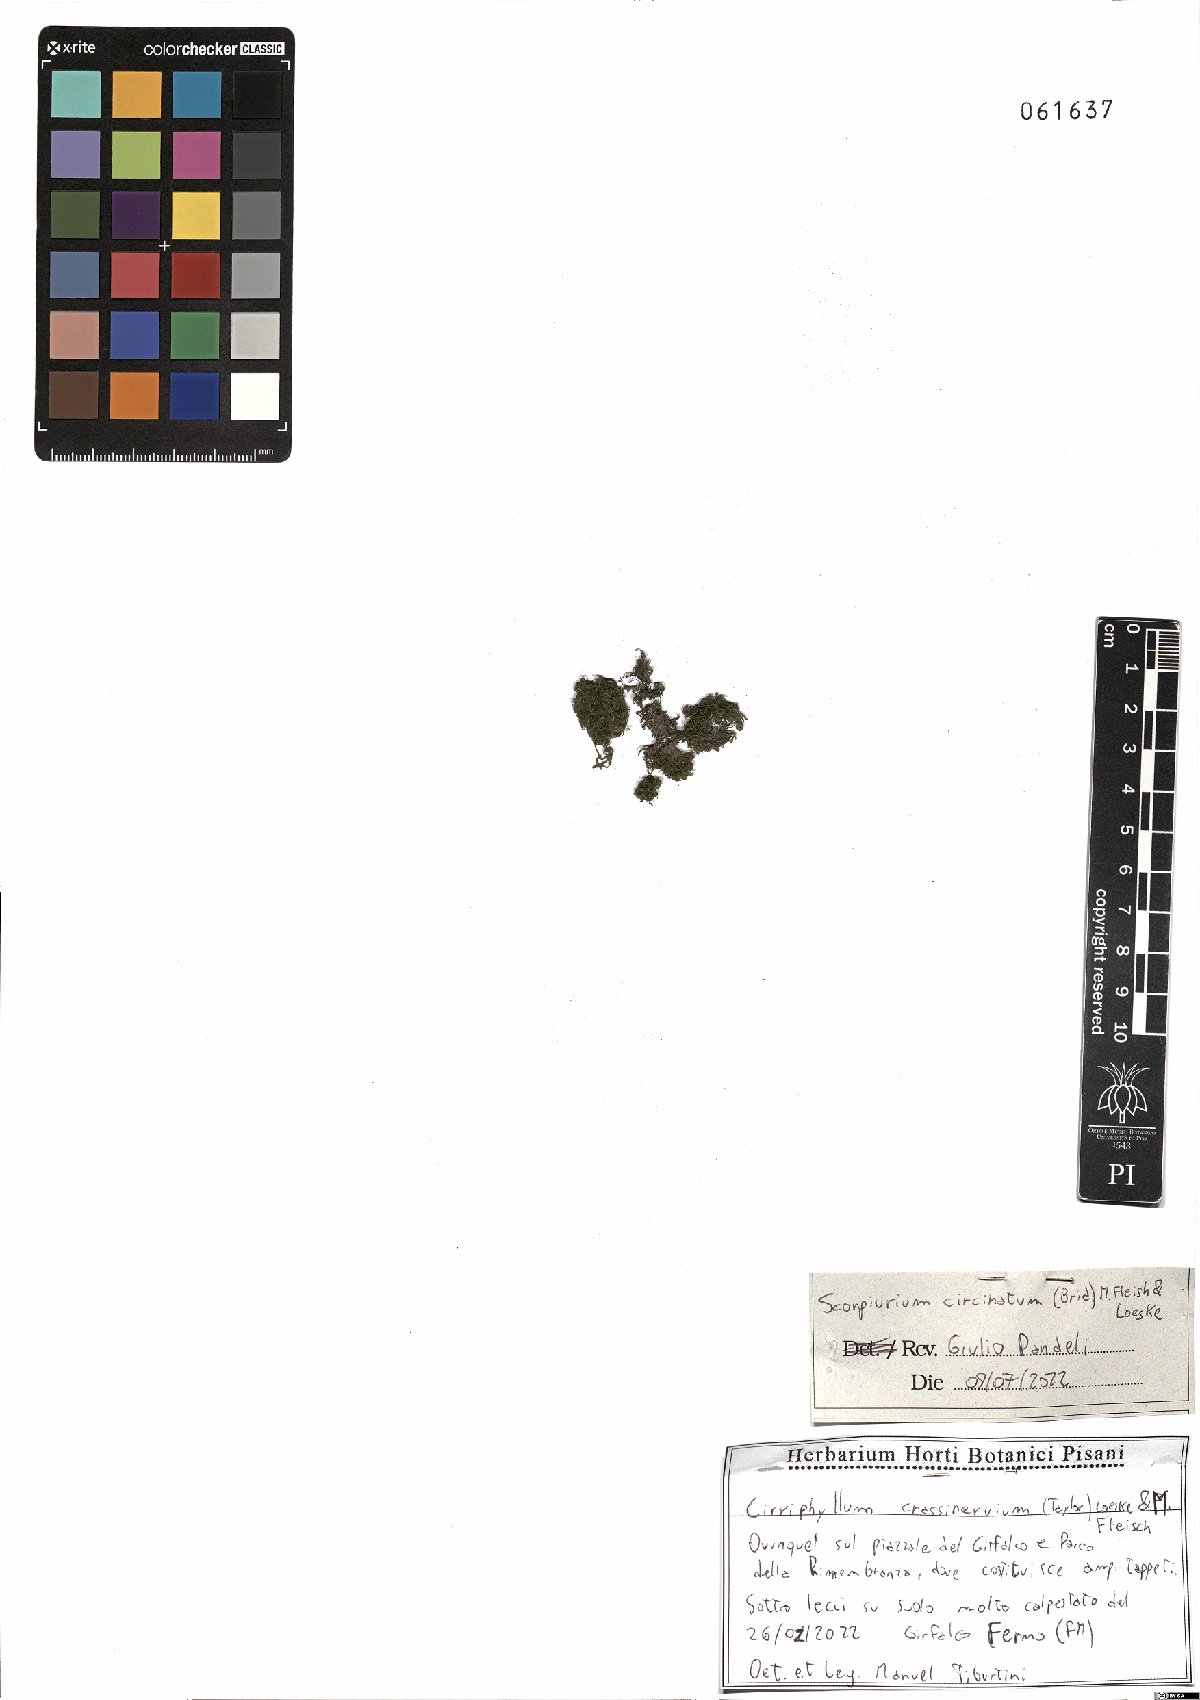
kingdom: Plantae
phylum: Bryophyta
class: Bryopsida
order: Hypnales
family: Brachytheciaceae
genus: Scorpiurium
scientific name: Scorpiurium circinatum
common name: Curving feather-moss
